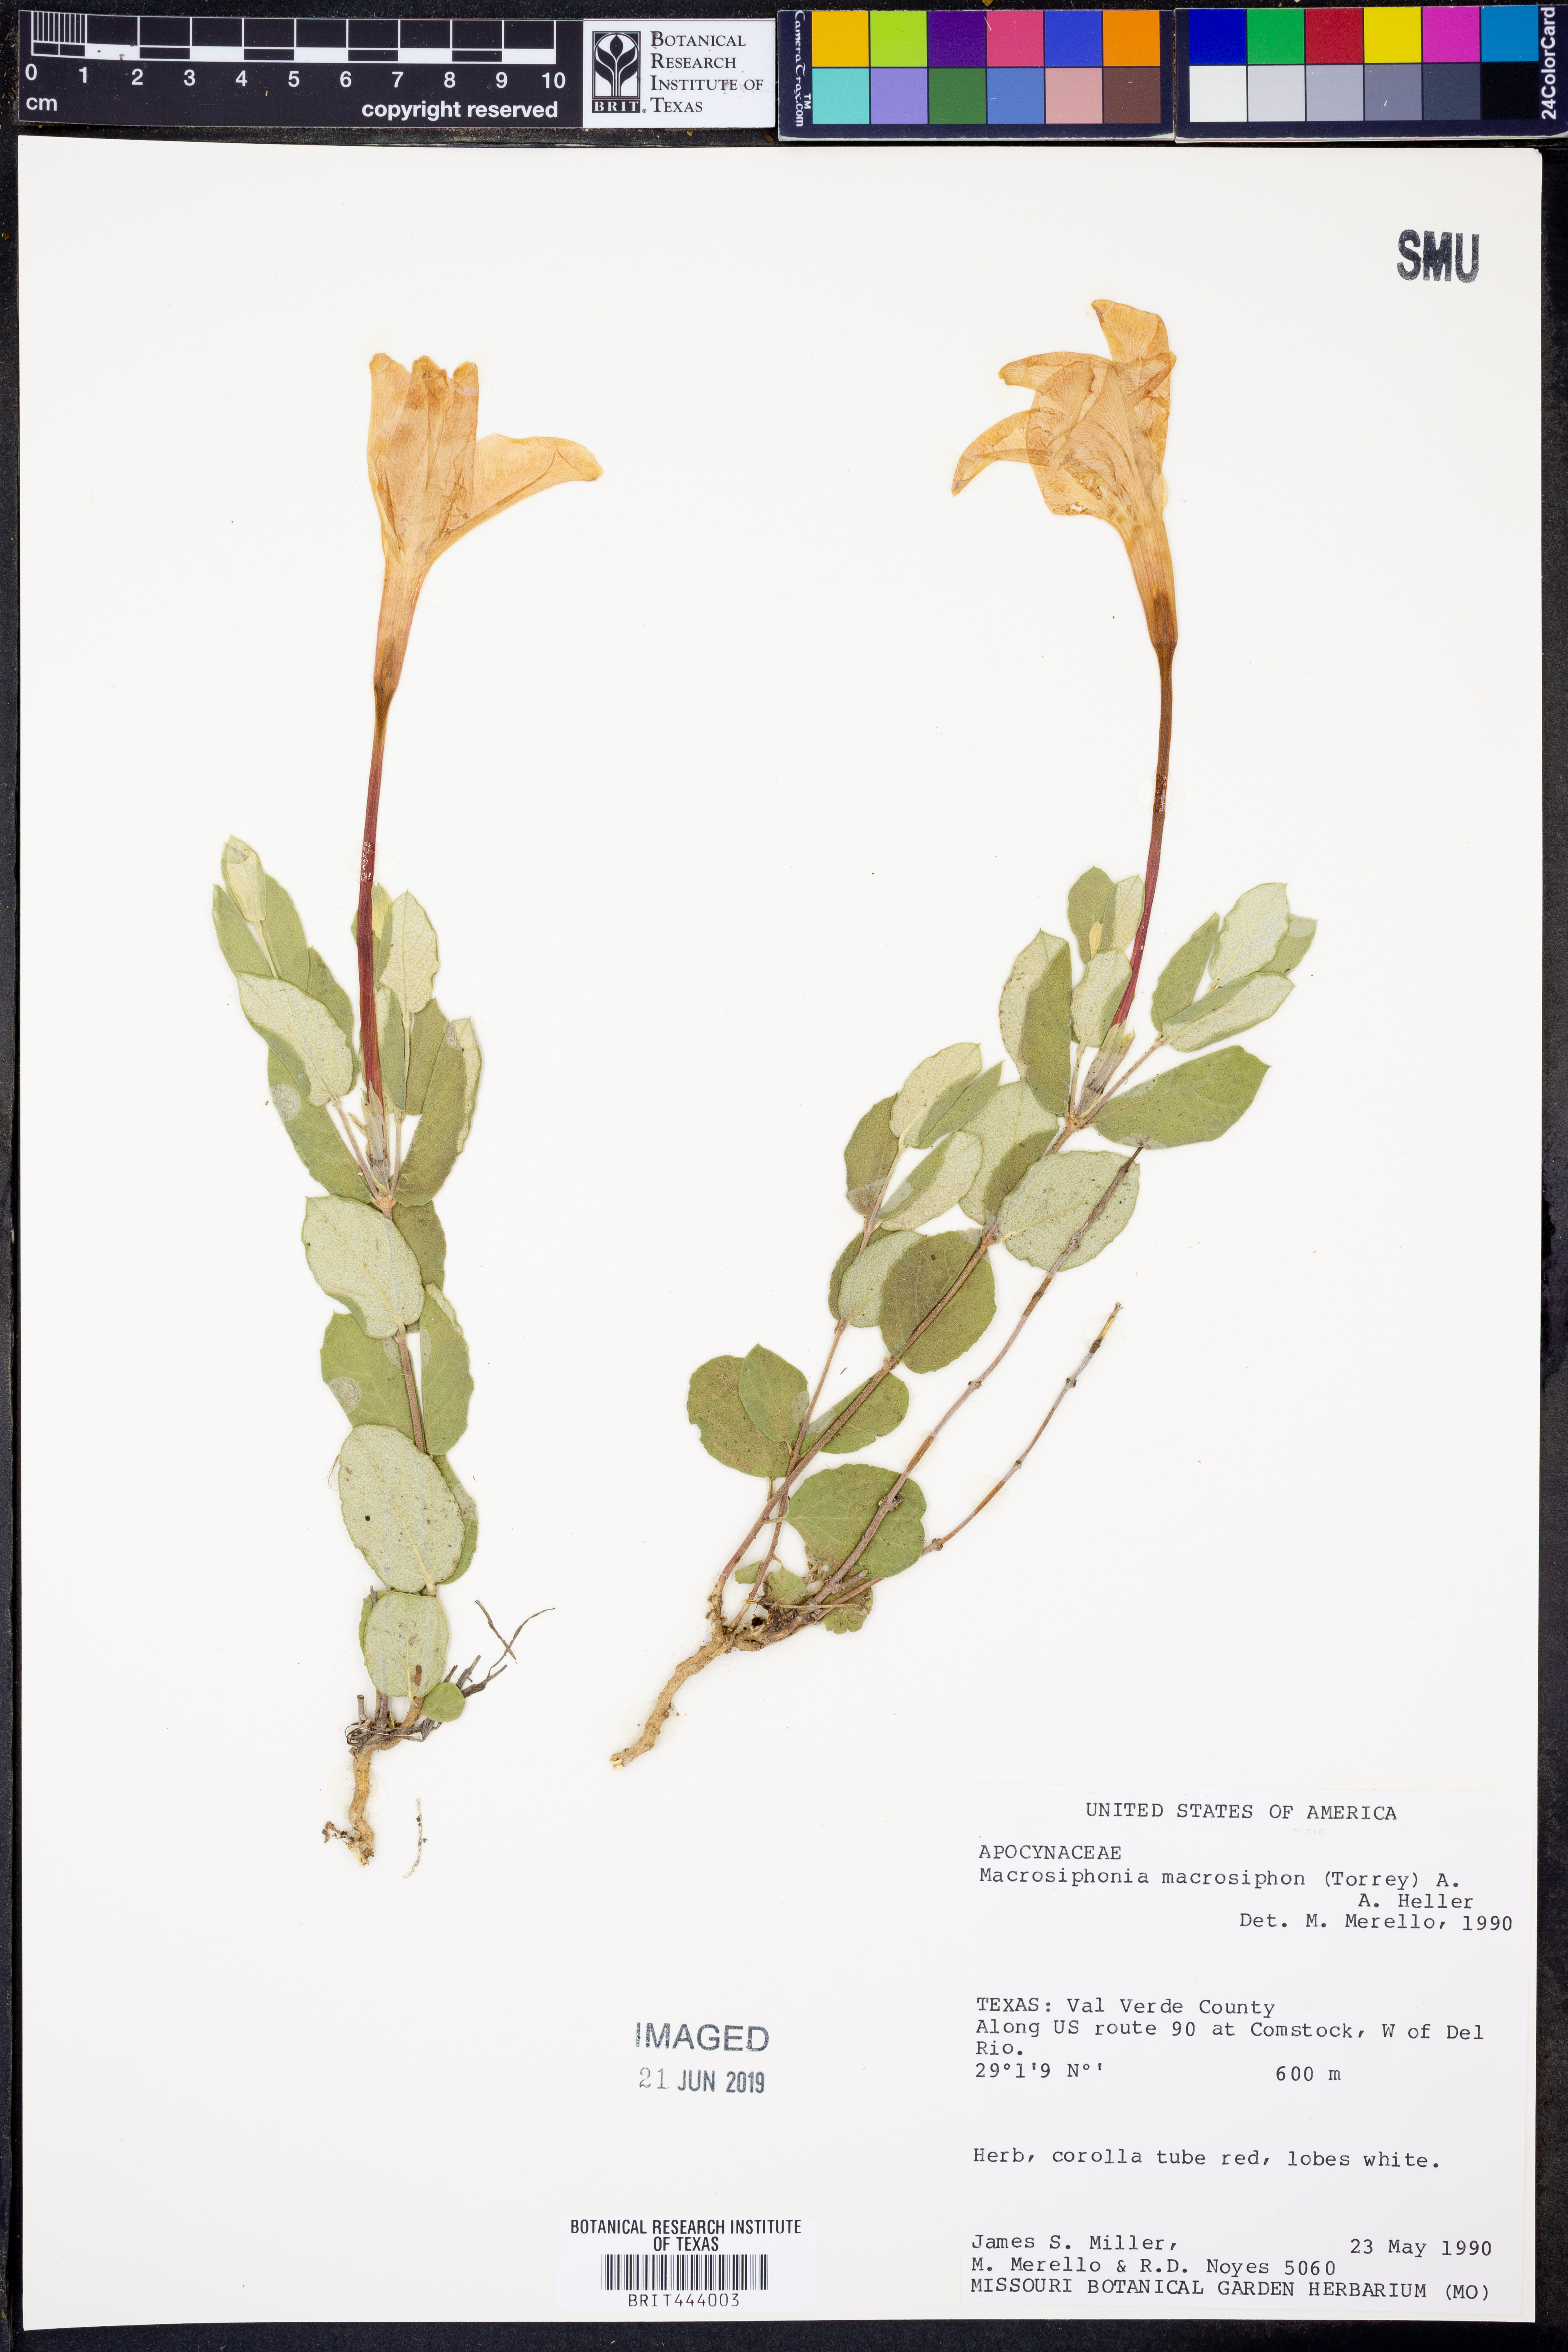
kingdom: Plantae
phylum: Tracheophyta
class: Magnoliopsida
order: Gentianales
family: Apocynaceae
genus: Mandevilla
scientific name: Mandevilla macrosiphon
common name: Plateau rocktrumpet
